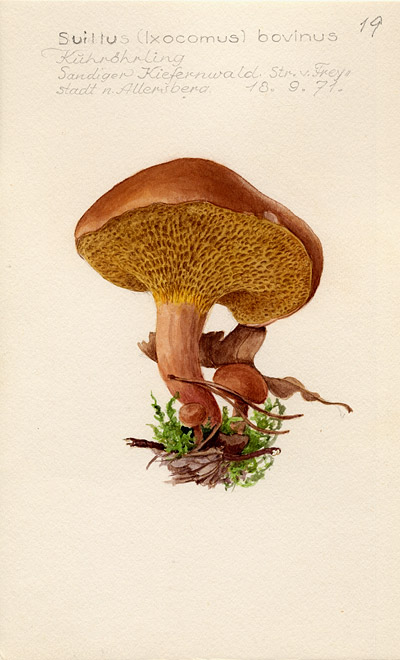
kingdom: Fungi
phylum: Basidiomycota
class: Agaricomycetes
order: Boletales
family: Suillaceae
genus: Suillus
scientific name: Suillus bovinus
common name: Bovine bolete
